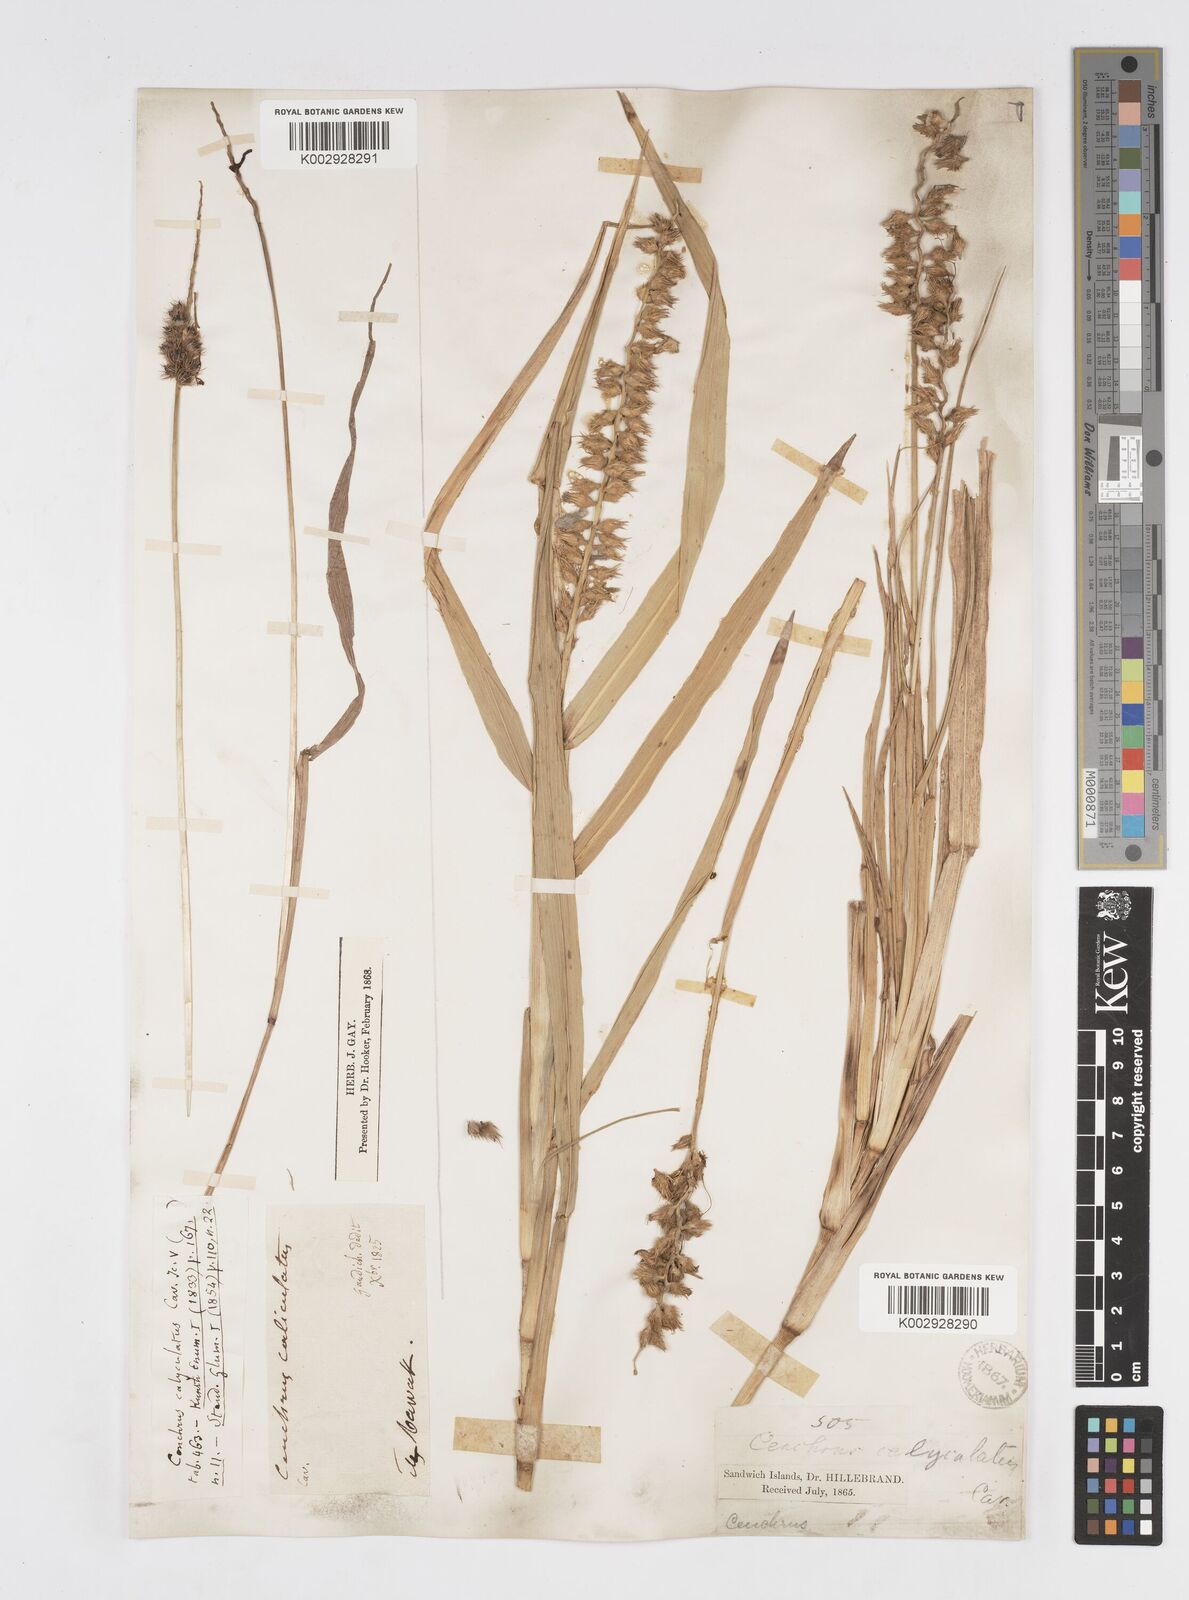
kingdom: Plantae
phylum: Tracheophyta
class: Liliopsida
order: Poales
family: Poaceae
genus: Cenchrus
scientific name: Cenchrus caliculatus
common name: Large bur grass
